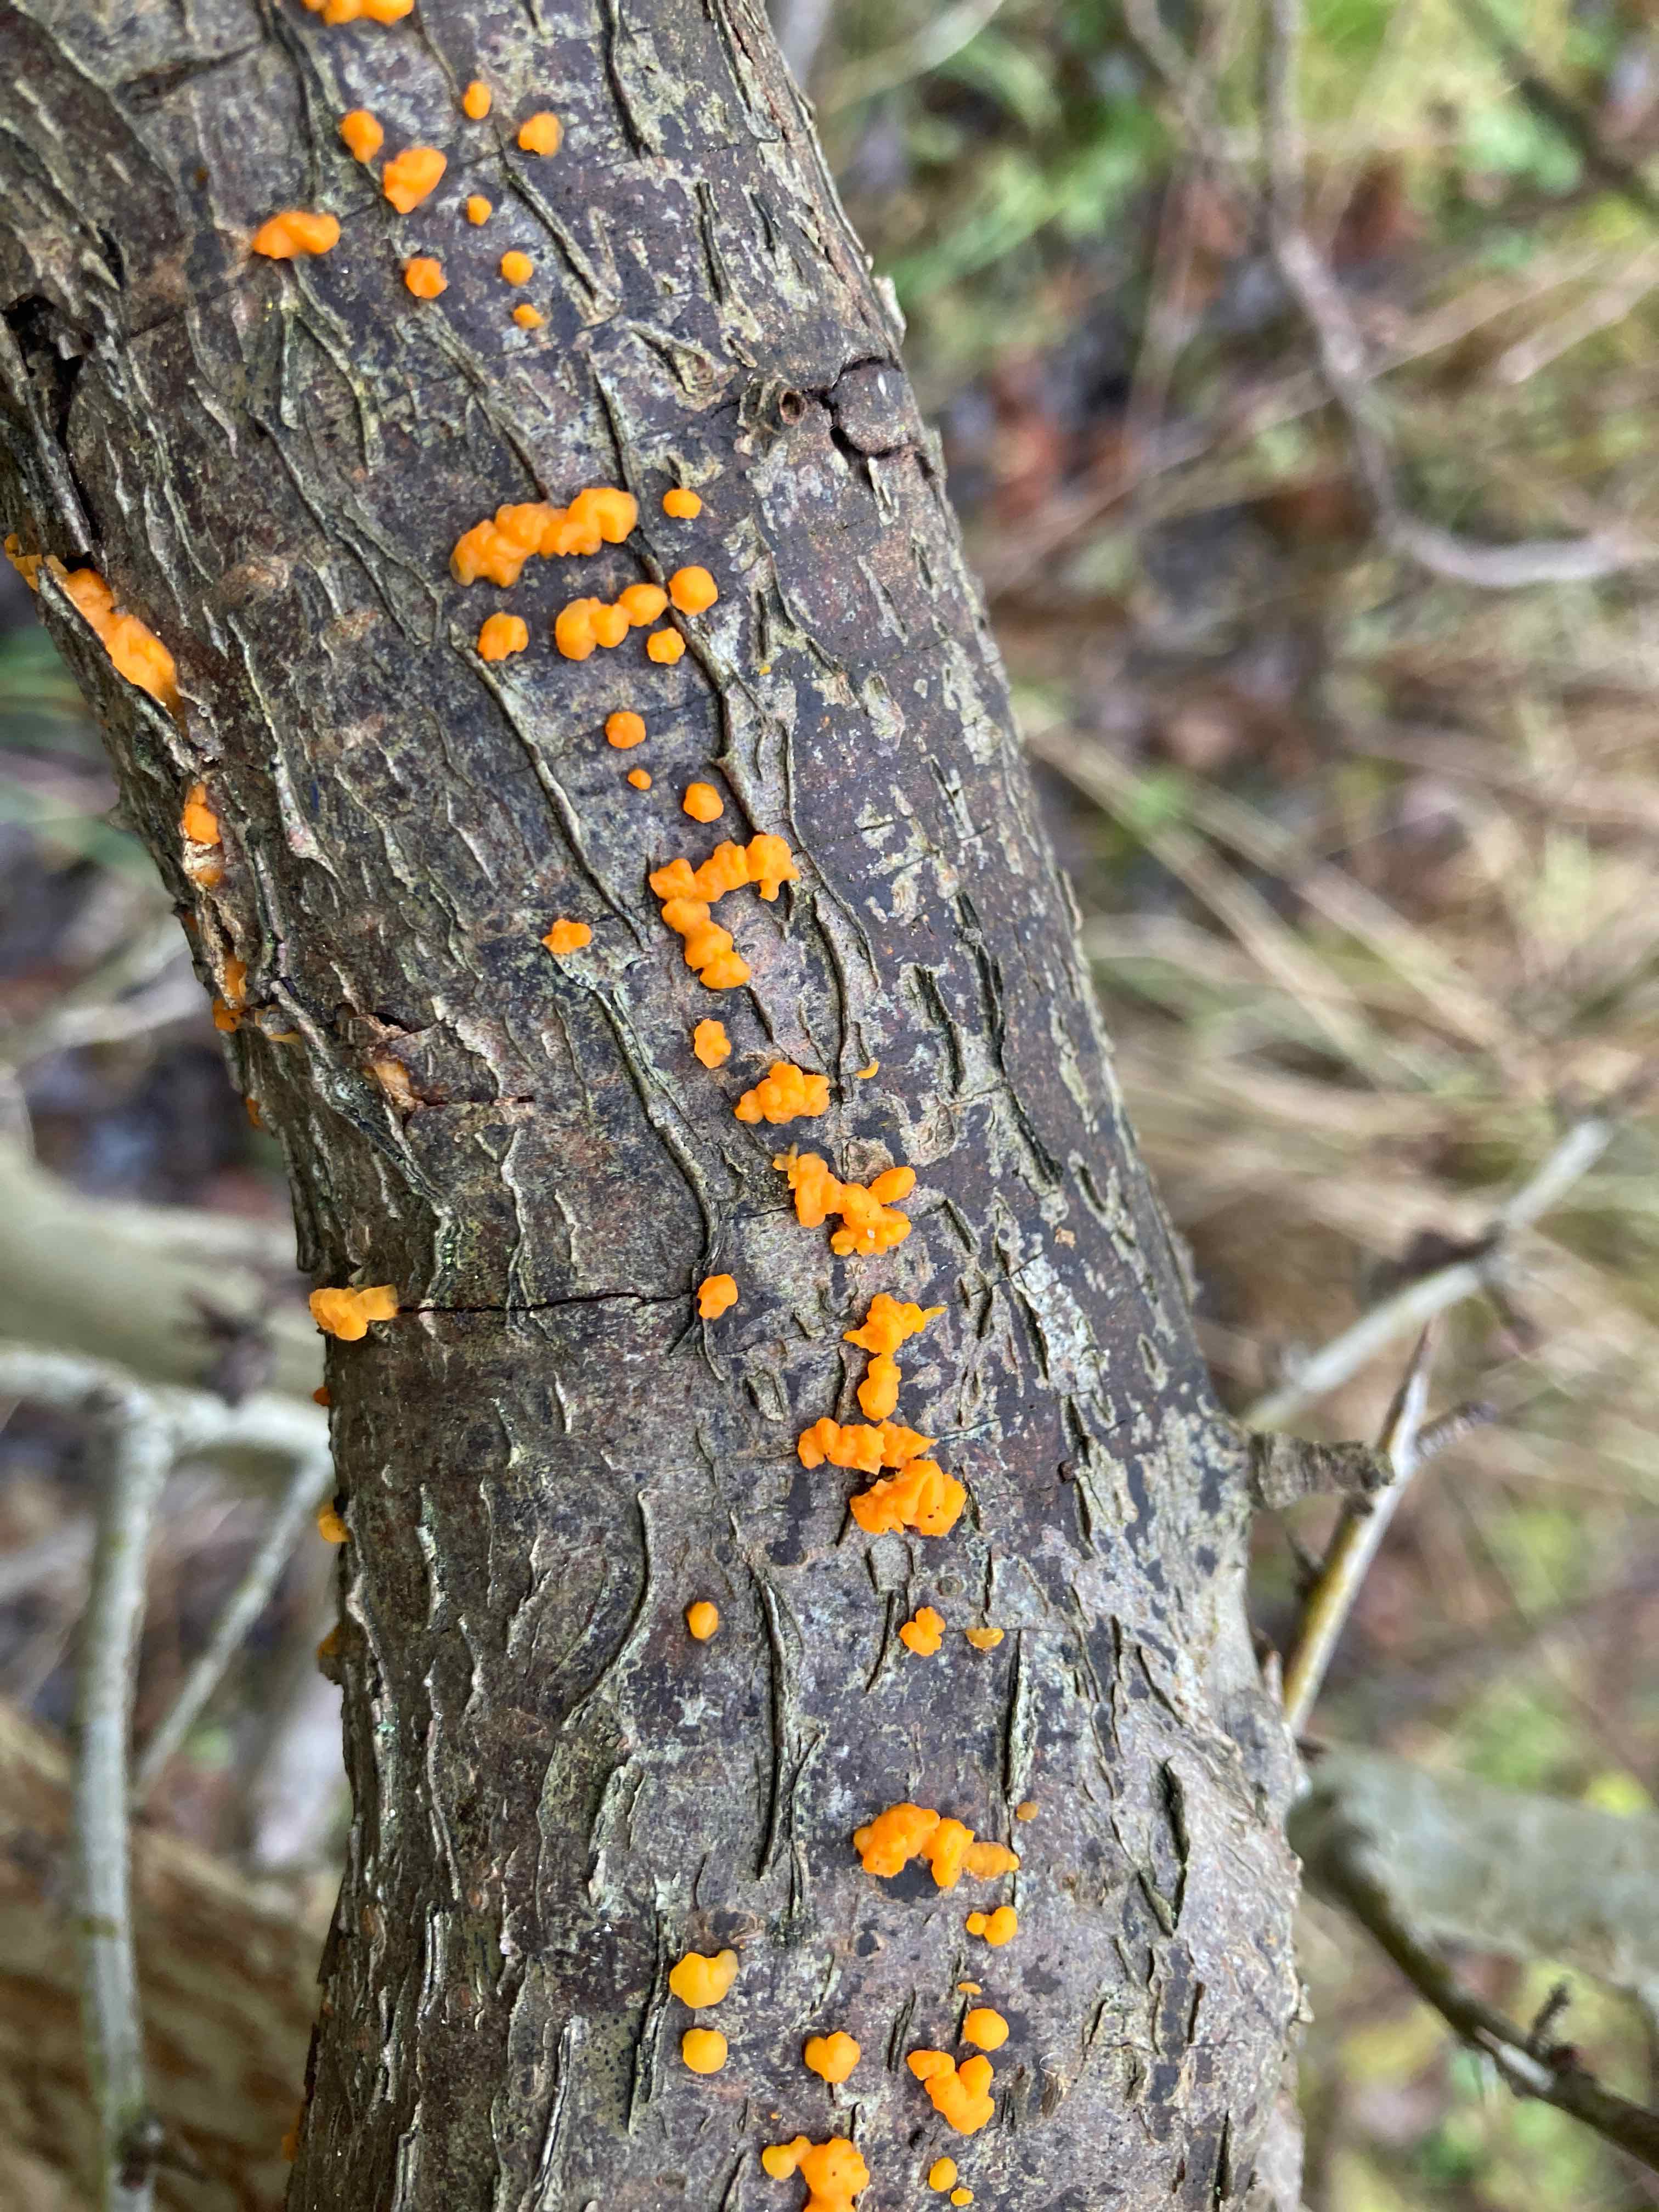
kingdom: Fungi
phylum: Basidiomycota
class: Dacrymycetes
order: Dacrymycetales
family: Dacrymycetaceae
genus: Dacrymyces
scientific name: Dacrymyces stillatus
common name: almindelig tåresvamp
